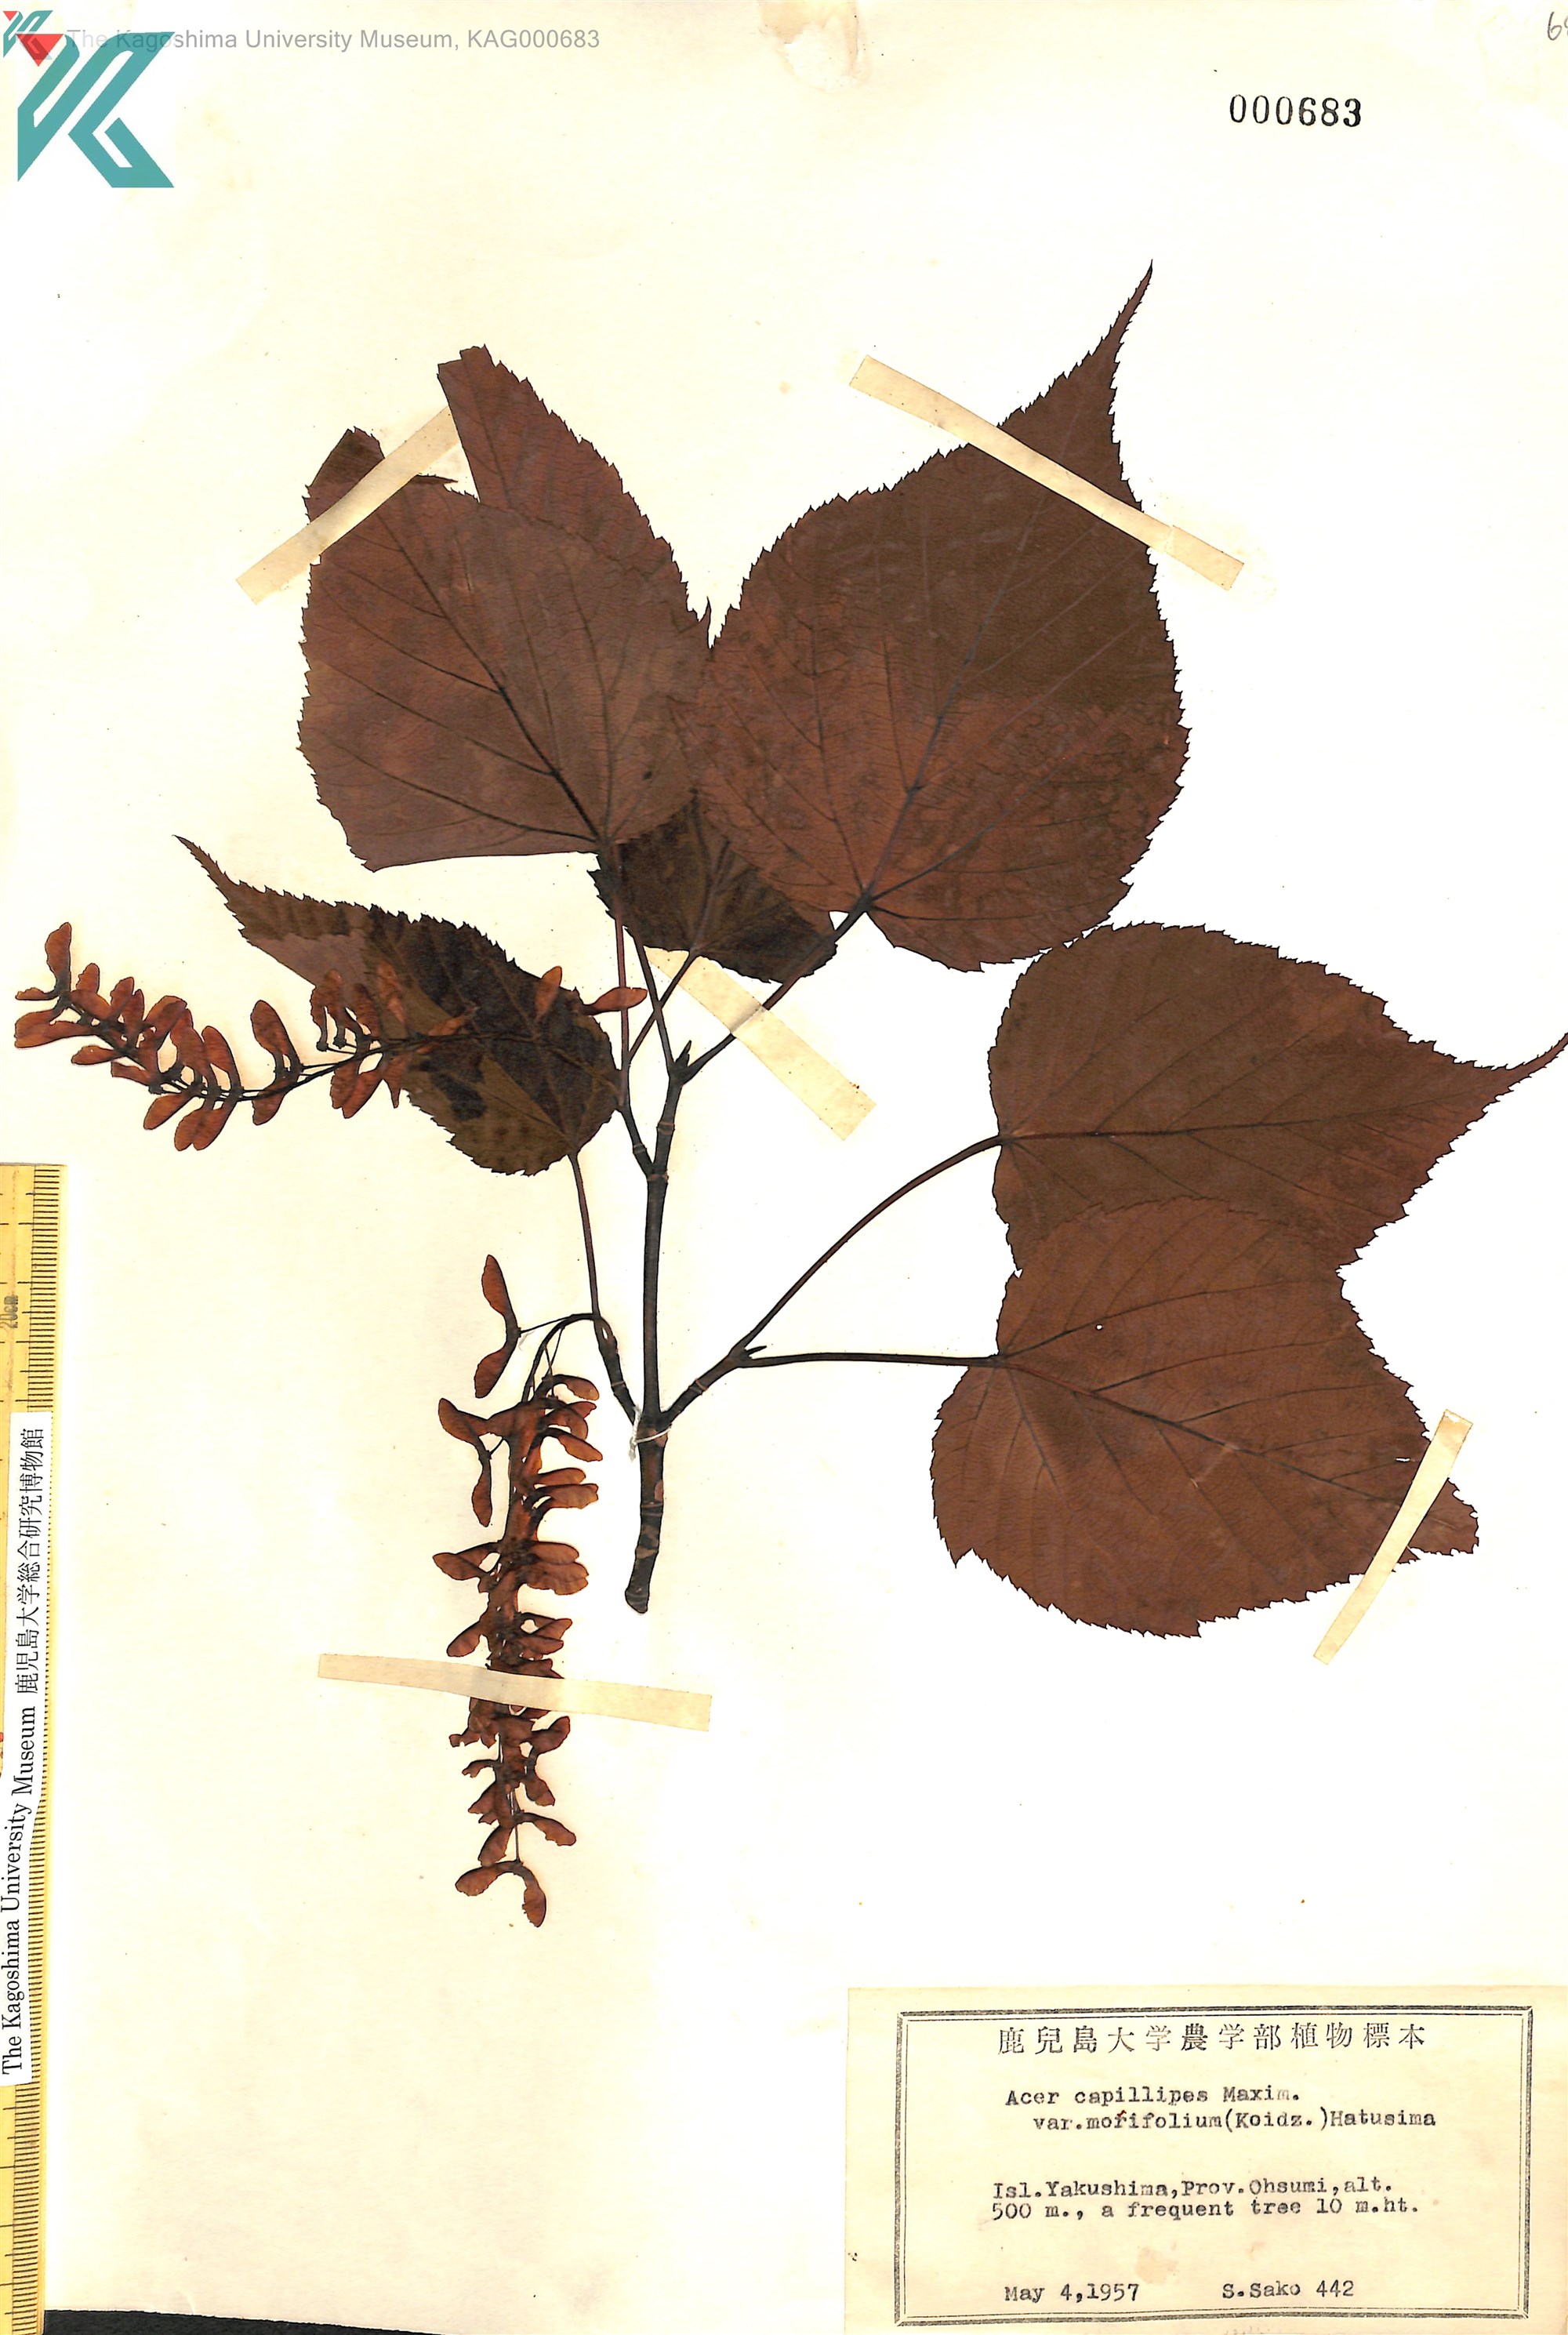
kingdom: Plantae
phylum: Tracheophyta
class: Magnoliopsida
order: Sapindales
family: Sapindaceae
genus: Acer
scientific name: Acer morifolium
